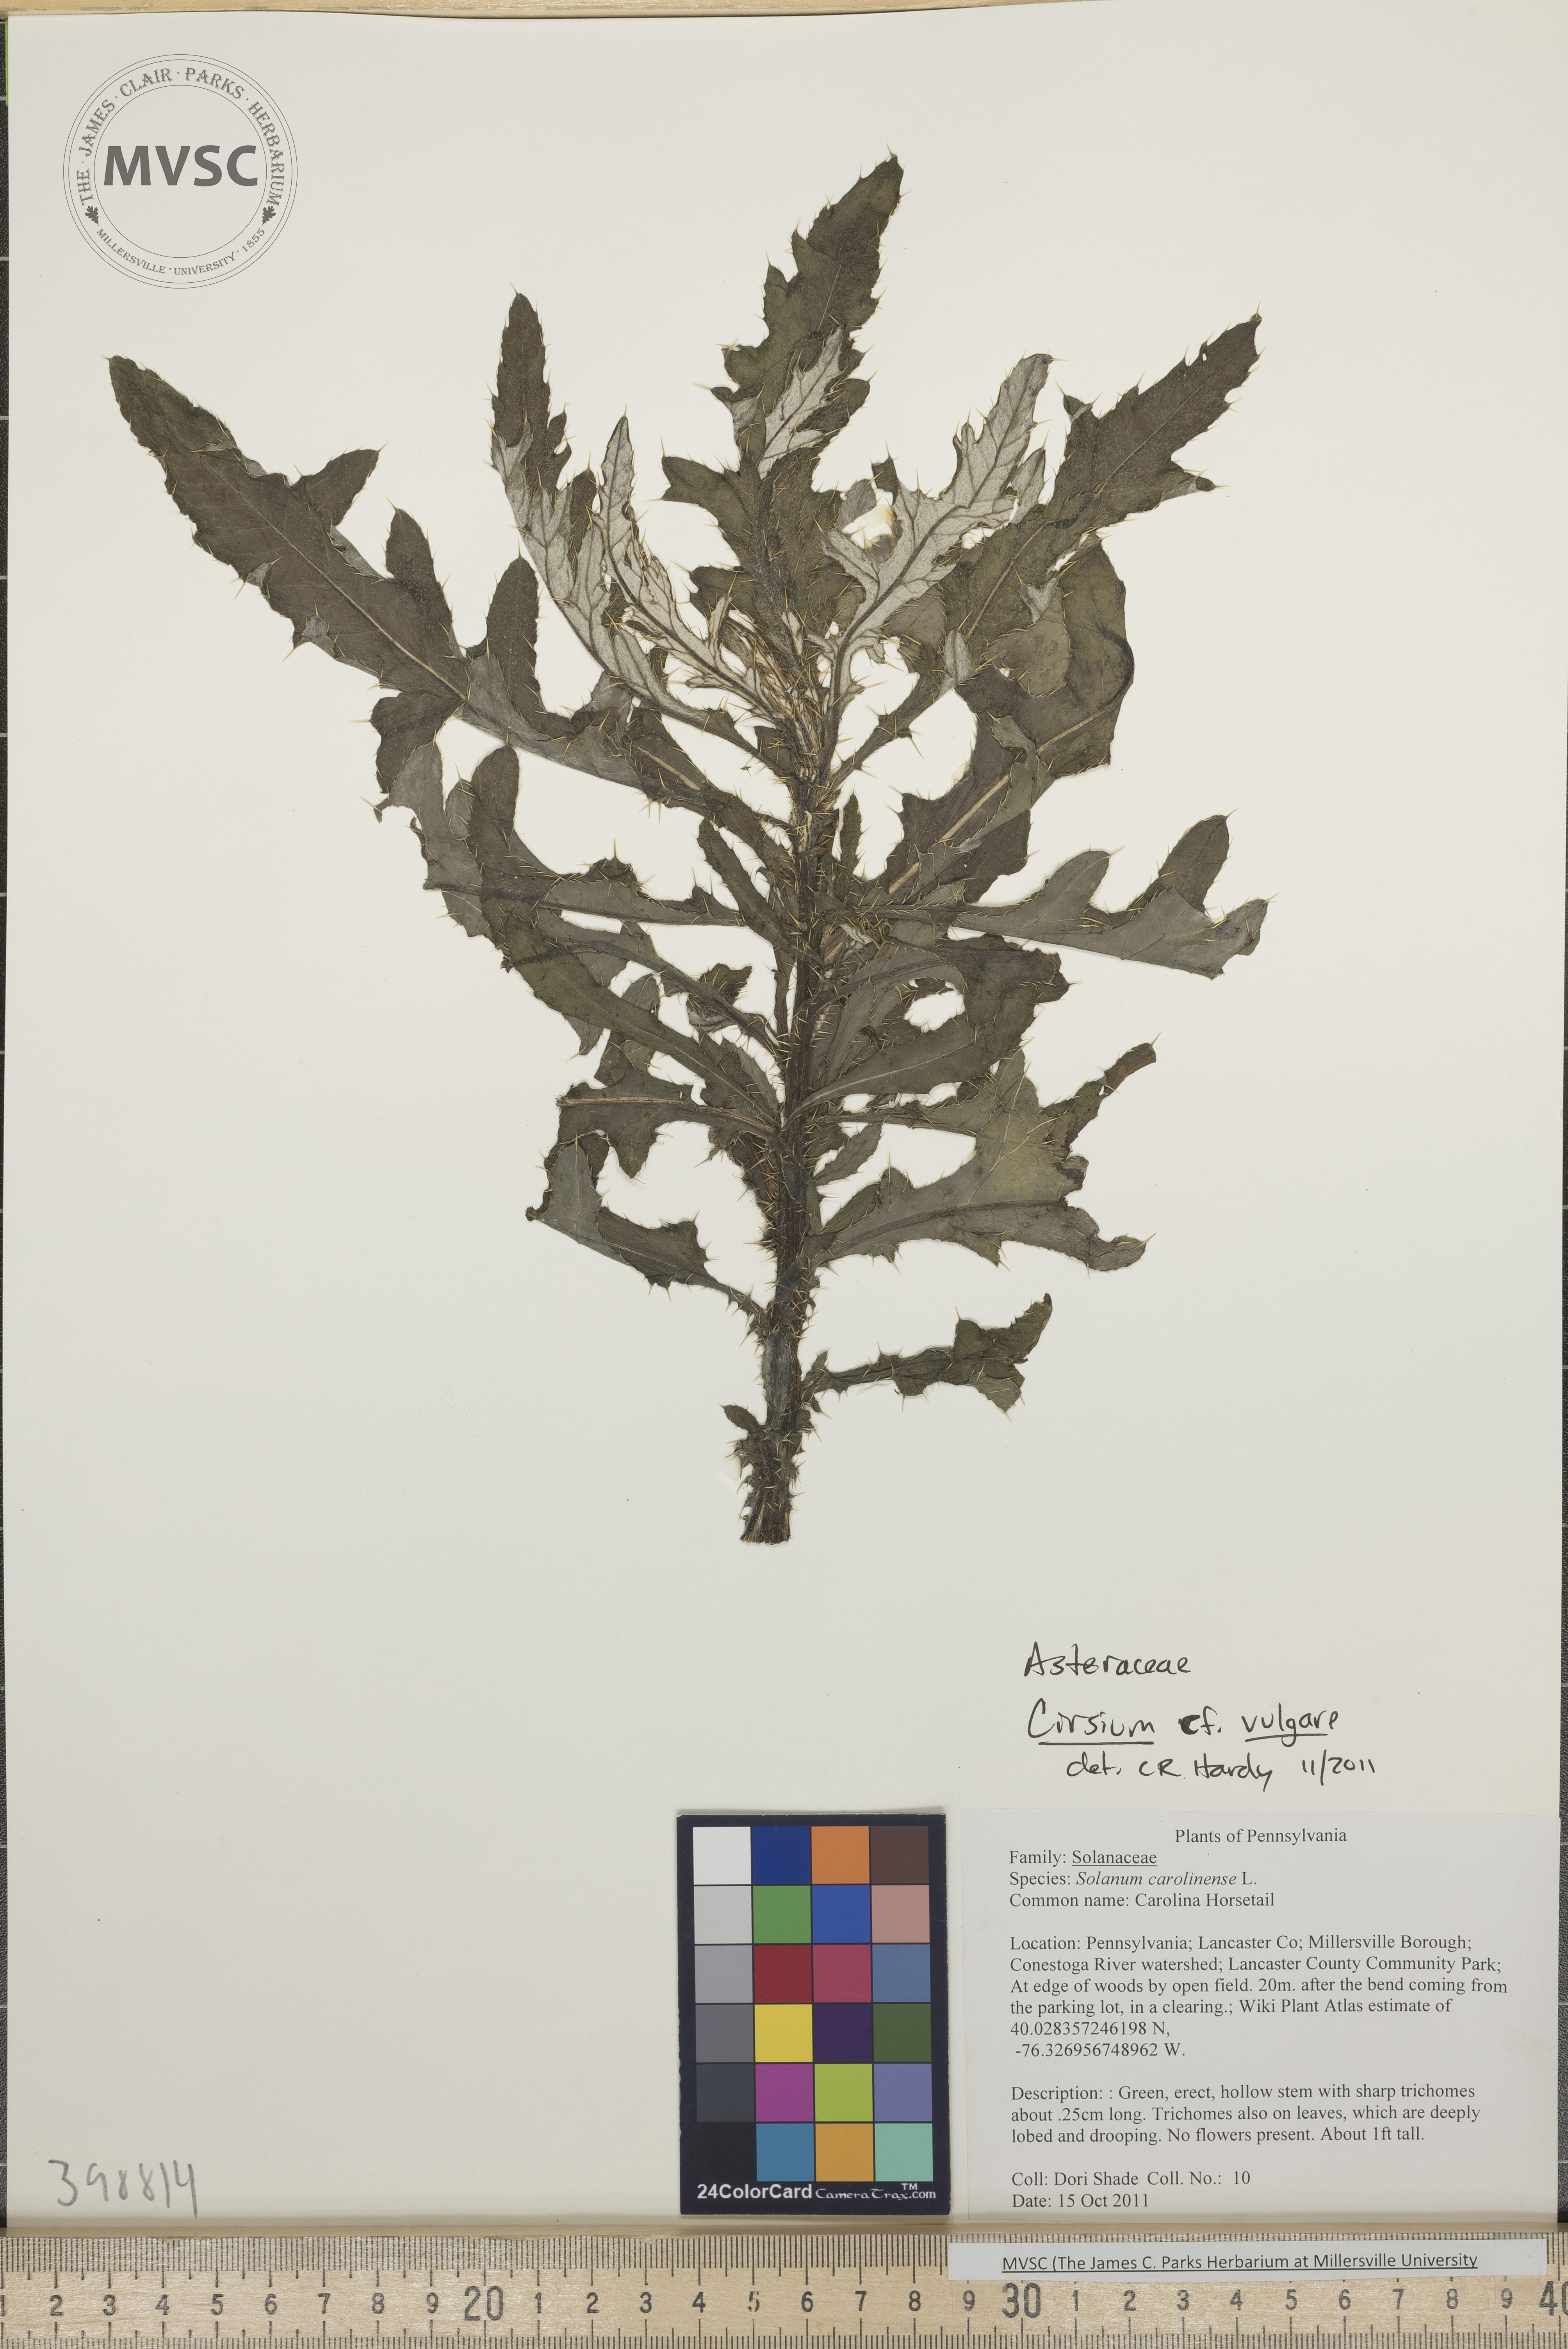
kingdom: Plantae
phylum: Tracheophyta
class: Magnoliopsida
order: Asterales
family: Asteraceae
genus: Cirsium
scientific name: Cirsium vulgare
